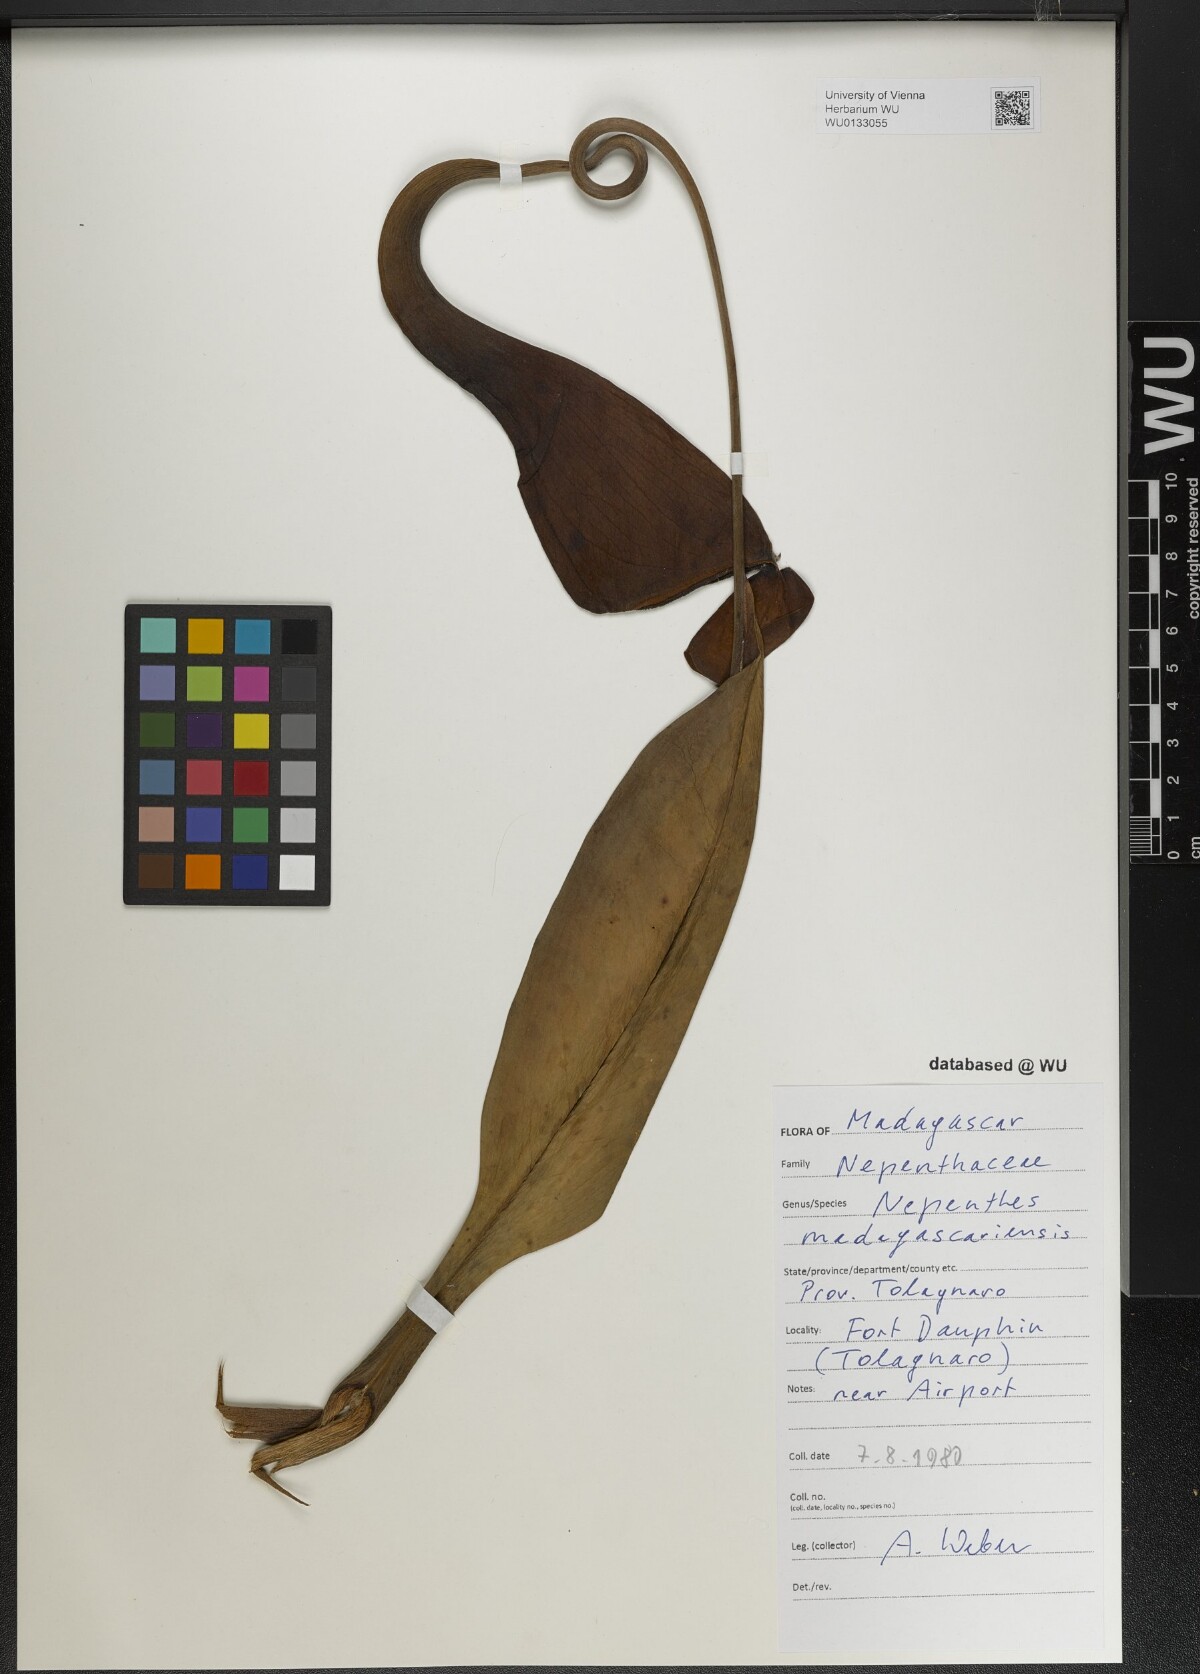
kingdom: Plantae
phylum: Tracheophyta
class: Magnoliopsida
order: Caryophyllales
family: Nepenthaceae
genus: Nepenthes
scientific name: Nepenthes madagascariensis
